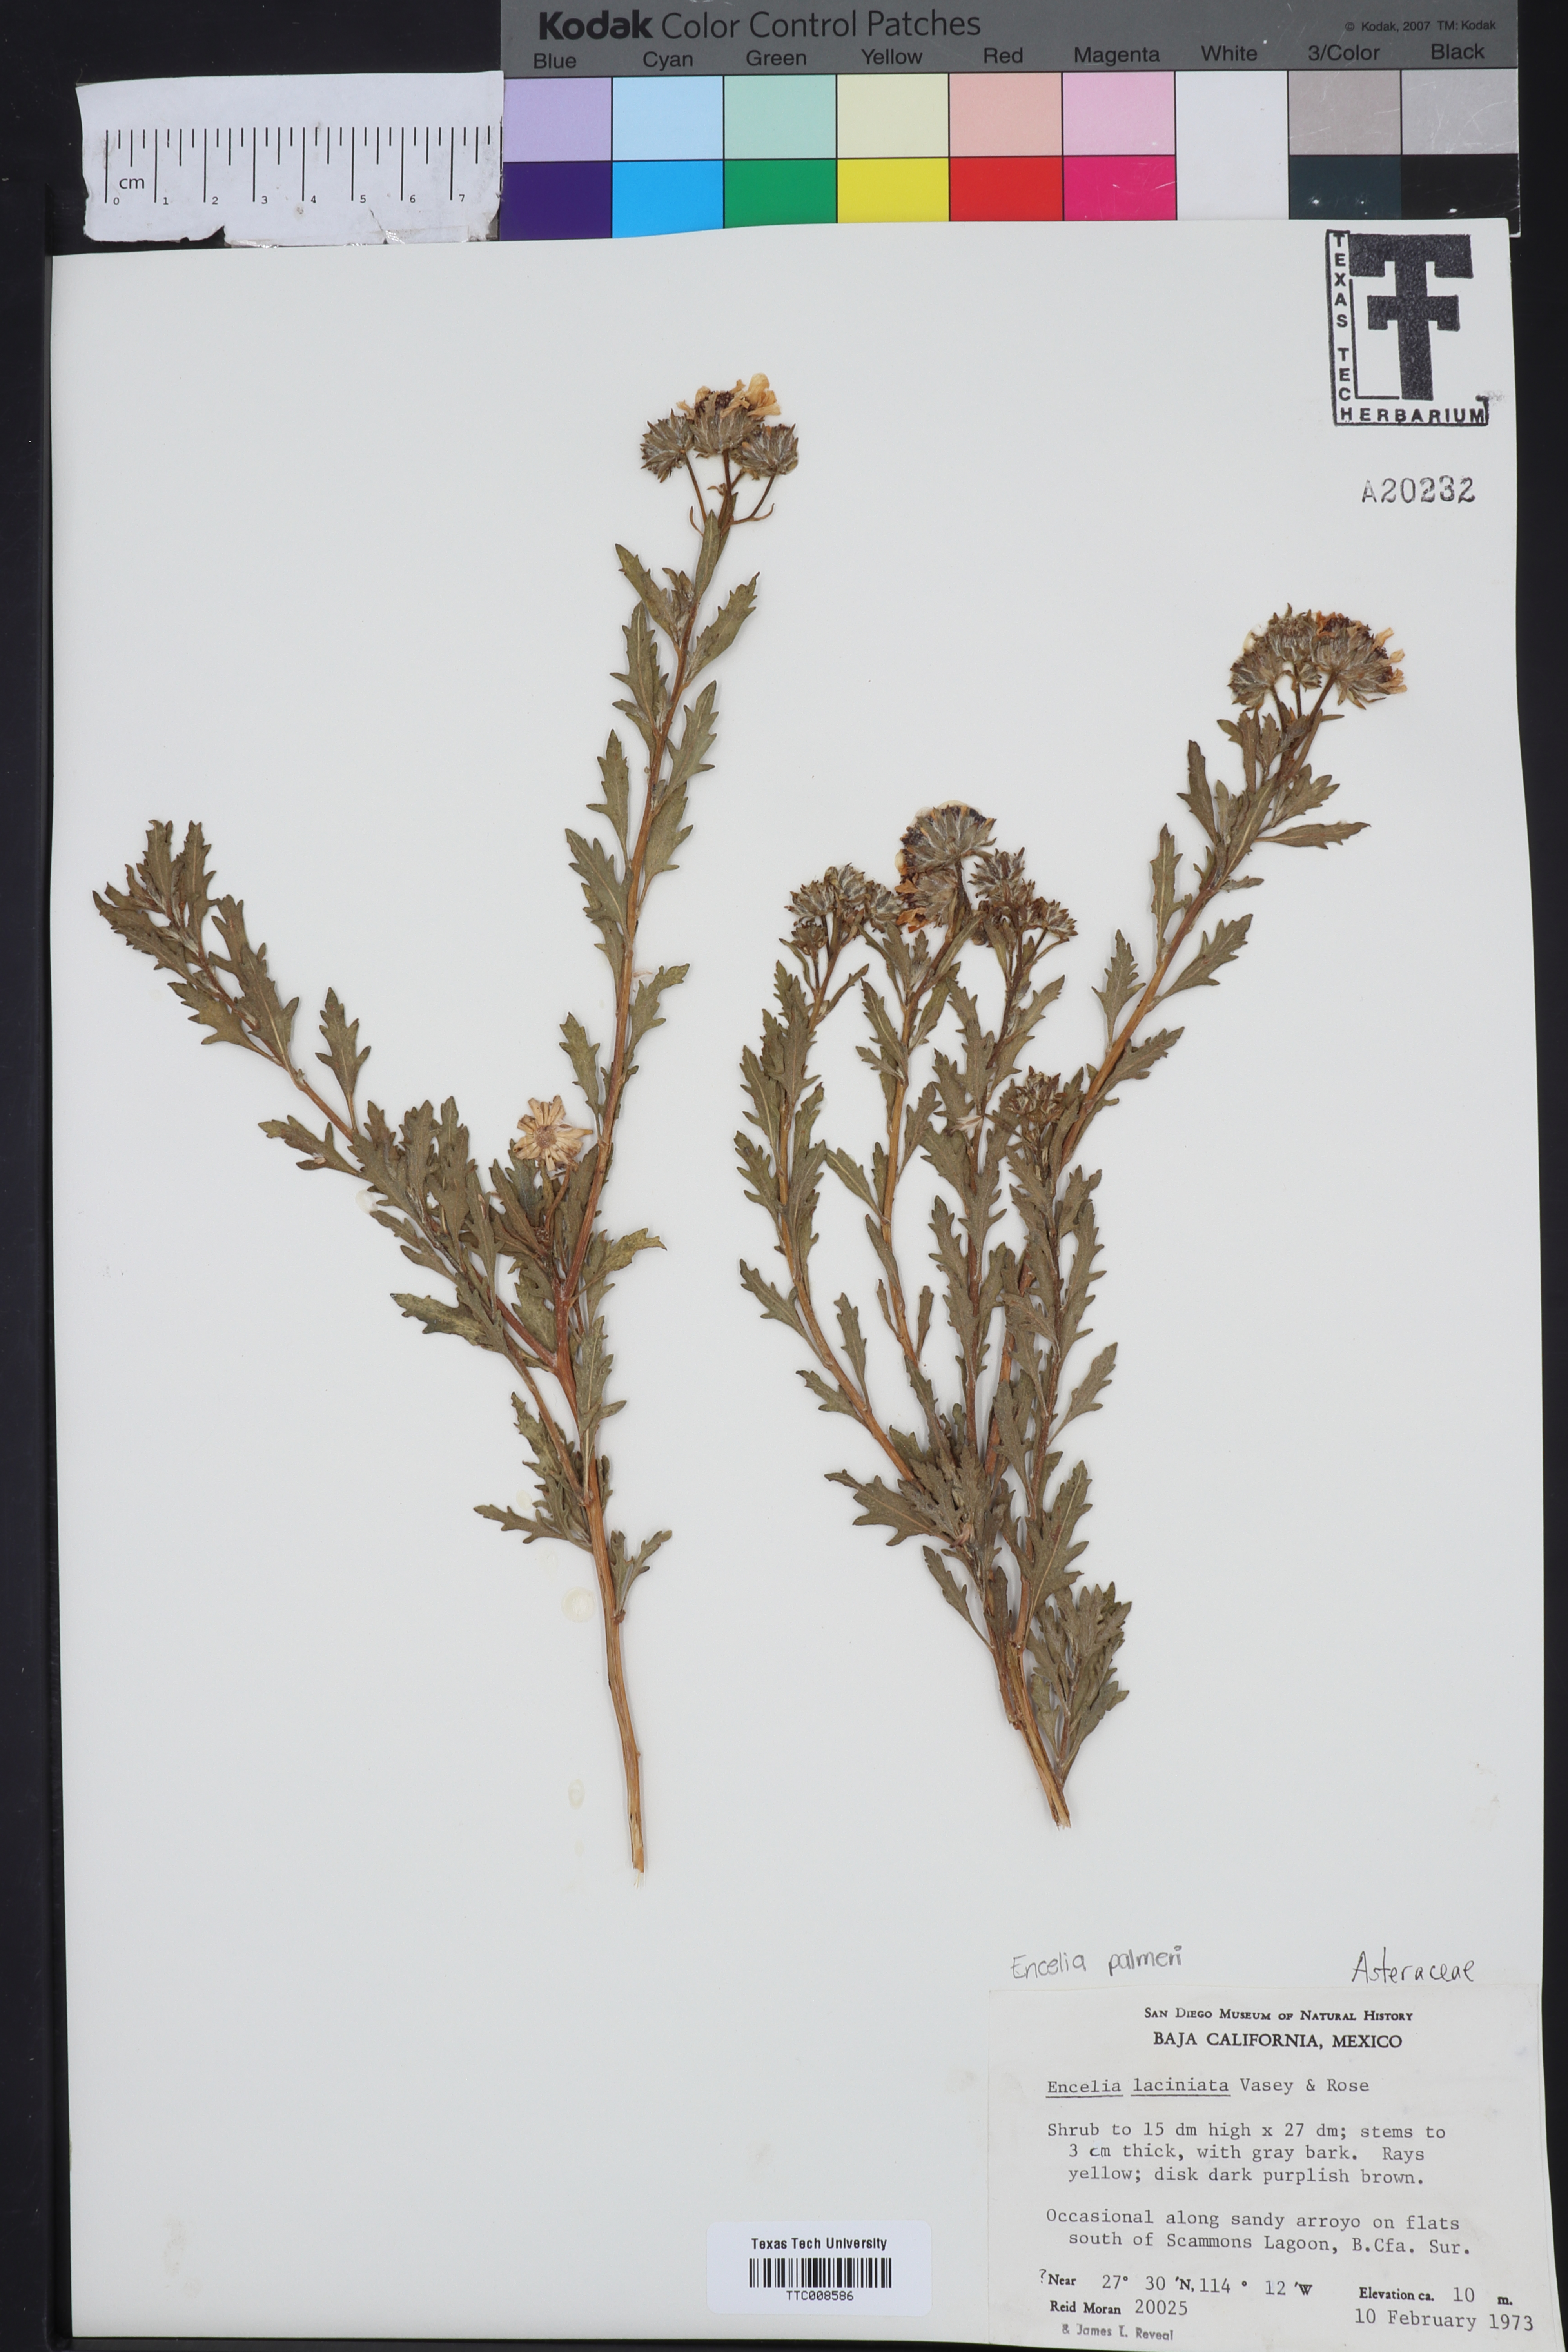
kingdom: Plantae
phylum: Tracheophyta
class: Magnoliopsida
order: Asterales
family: Asteraceae
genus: Encelia
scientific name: Encelia laciniata
